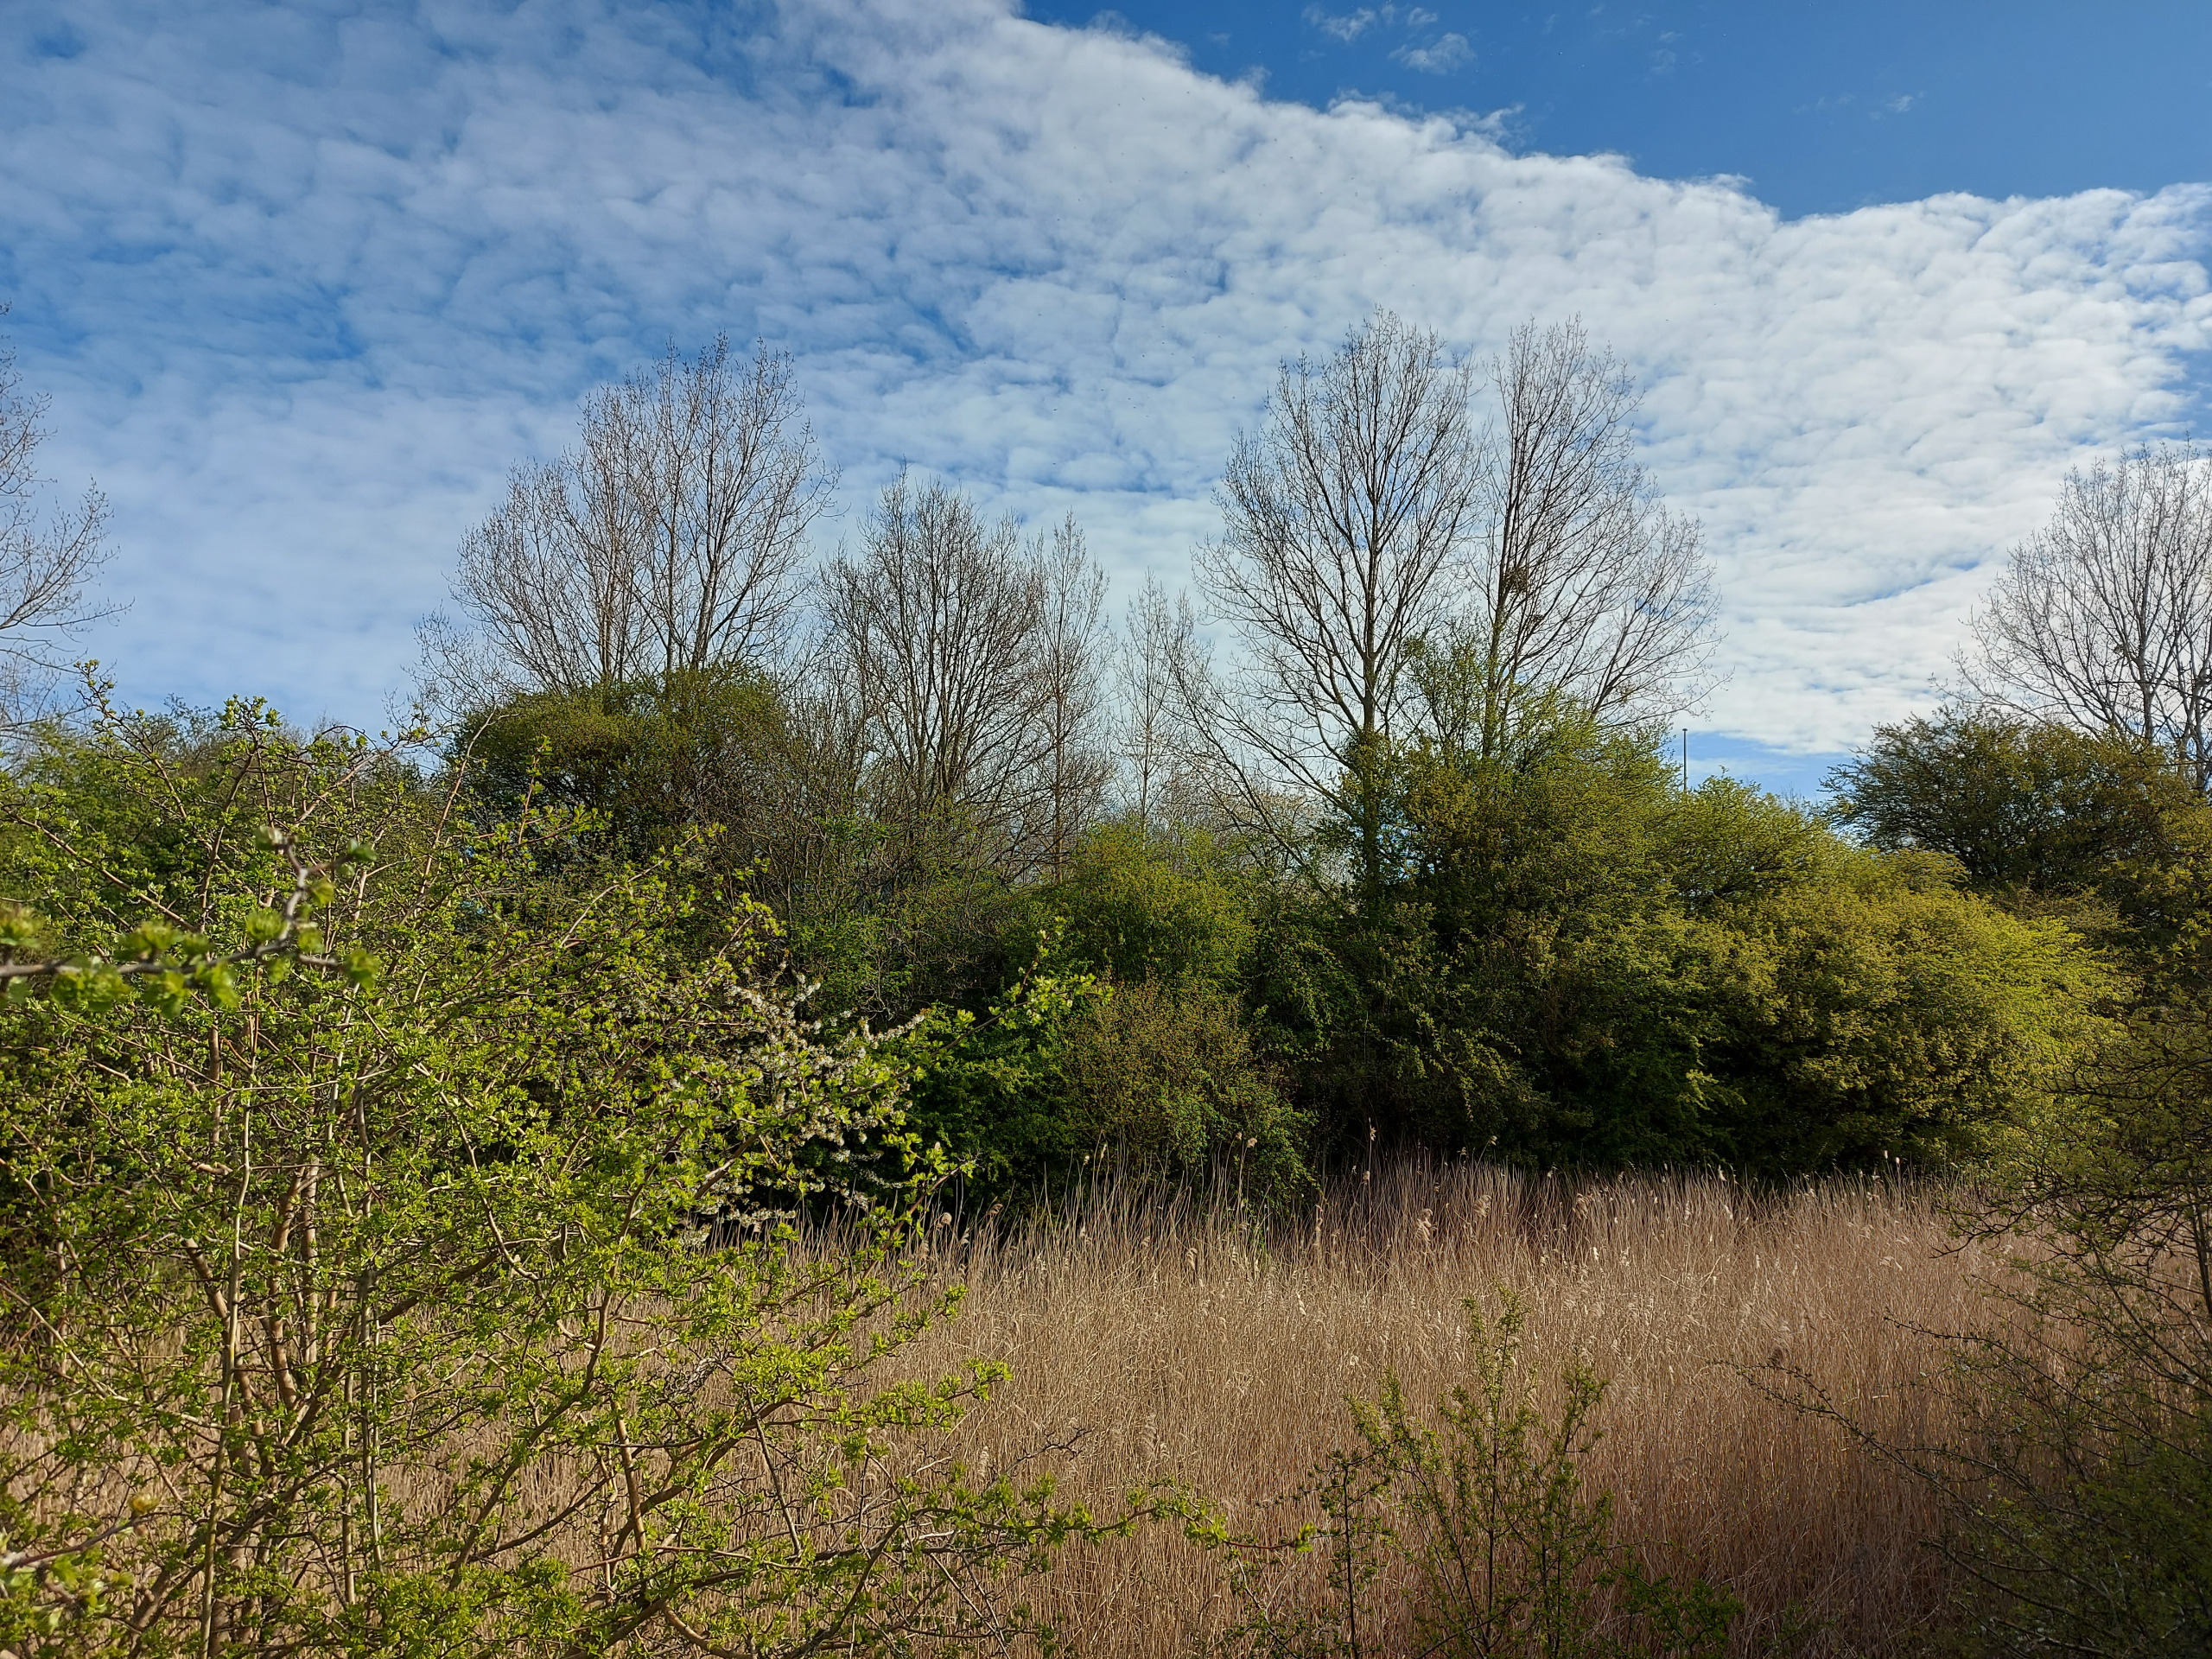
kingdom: Plantae
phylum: Tracheophyta
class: Magnoliopsida
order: Santalales
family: Viscaceae
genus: Viscum
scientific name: Viscum album
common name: Mistelten
